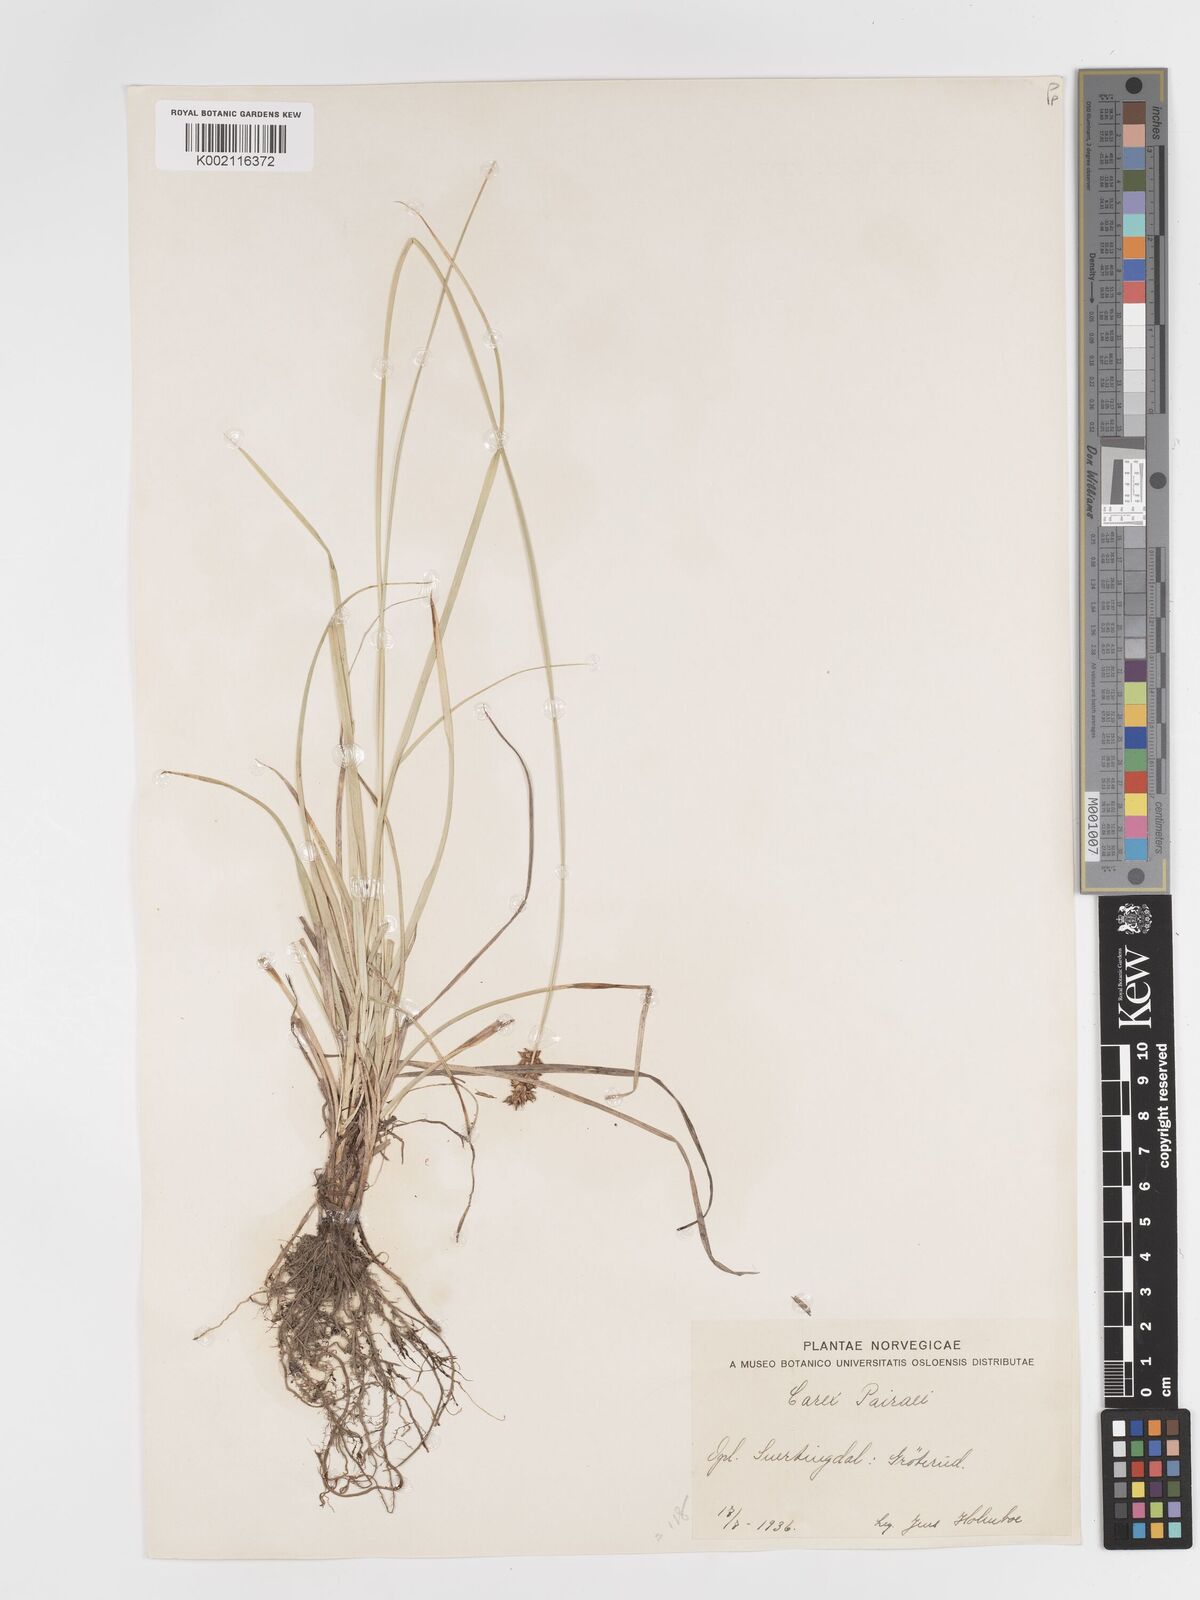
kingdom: Plantae
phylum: Tracheophyta
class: Liliopsida
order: Poales
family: Cyperaceae
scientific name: Cyperaceae
